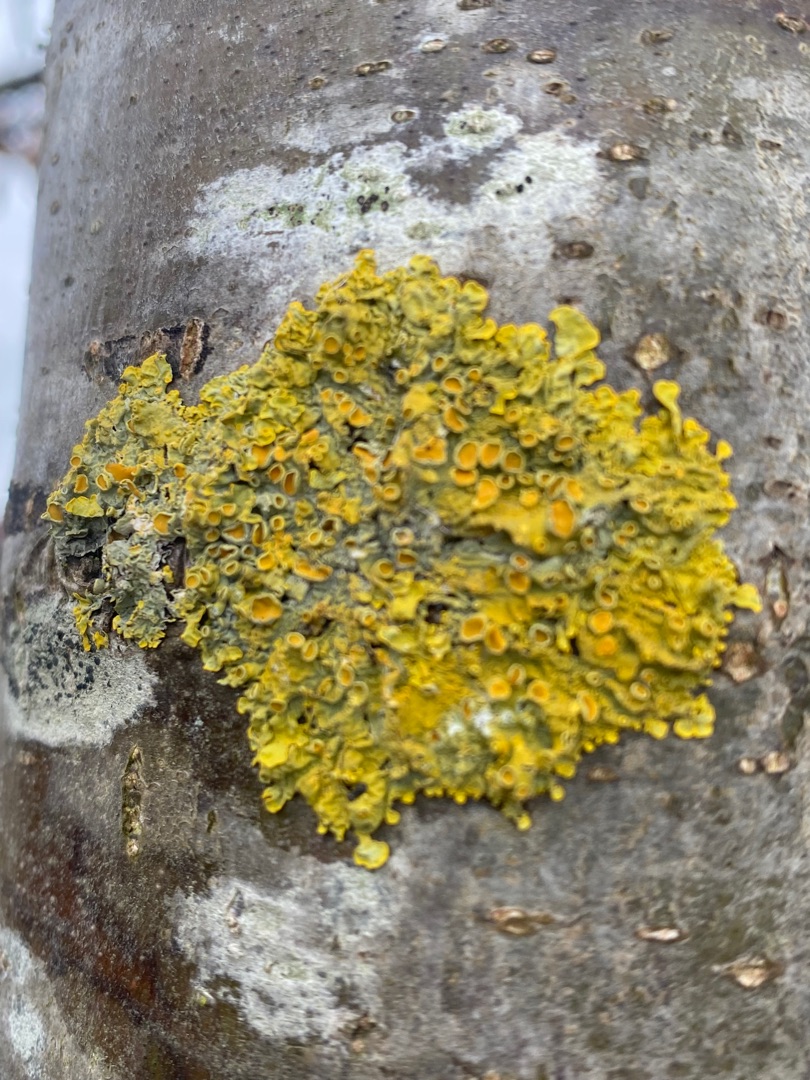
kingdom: Fungi
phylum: Ascomycota
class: Lecanoromycetes
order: Teloschistales
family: Teloschistaceae
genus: Xanthoria
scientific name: Xanthoria parietina
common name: Almindelig væggelav
